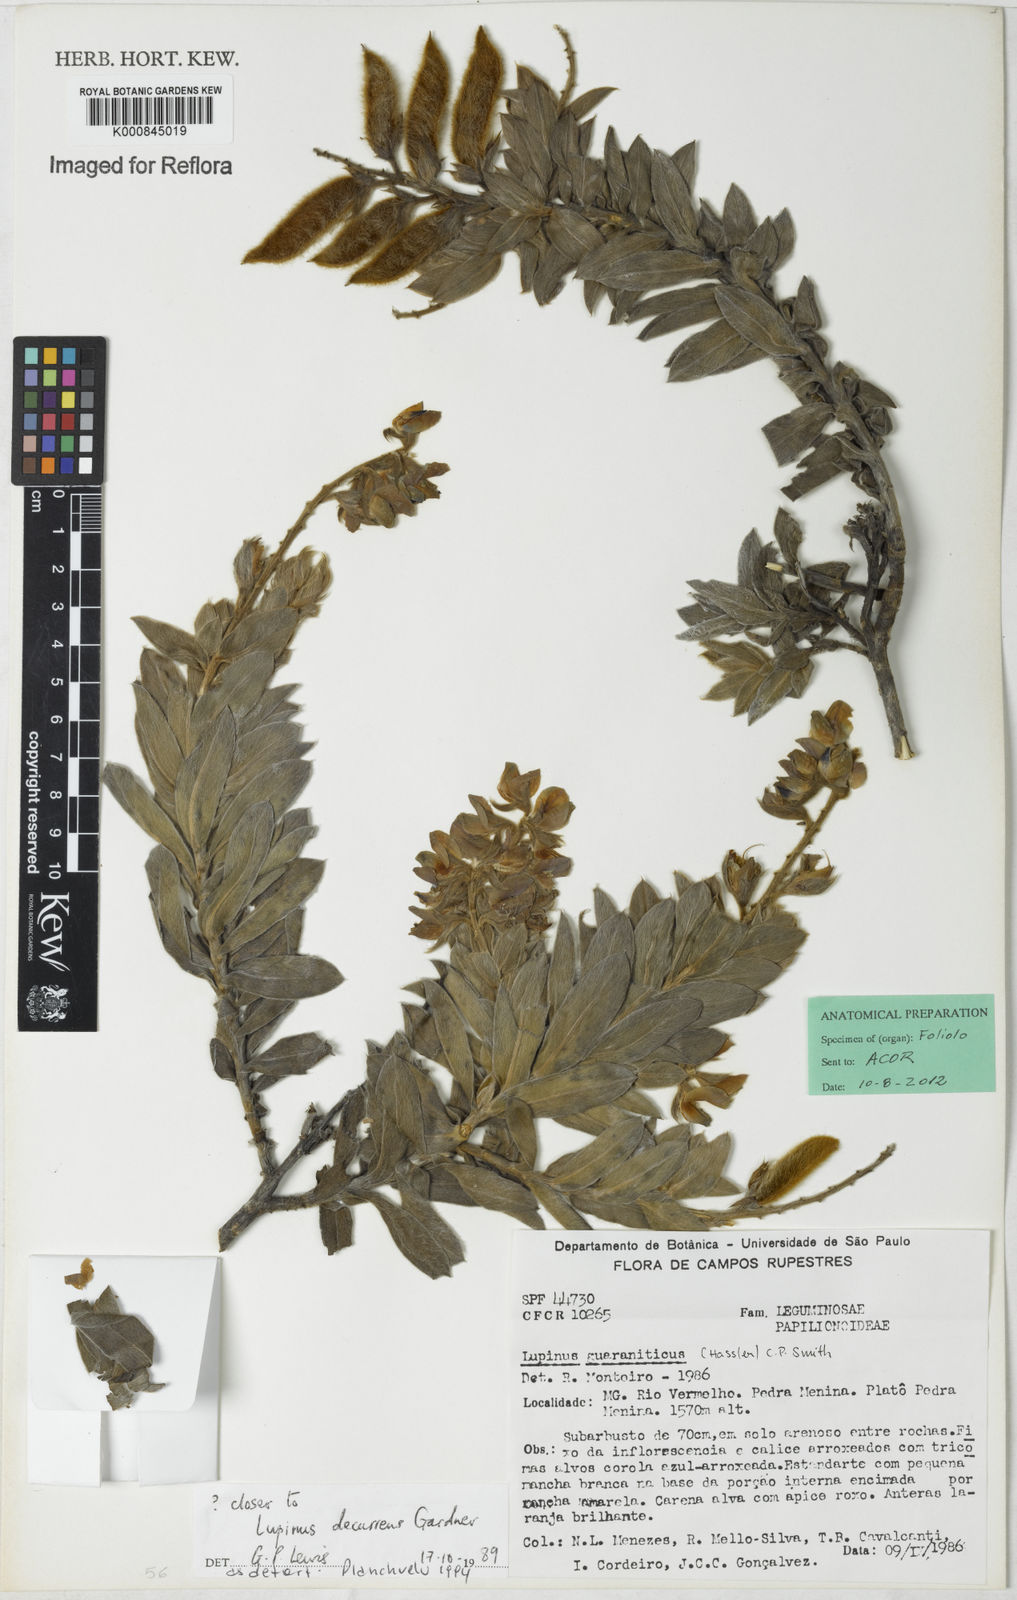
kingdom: Plantae
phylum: Tracheophyta
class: Magnoliopsida
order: Fabales
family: Fabaceae
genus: Lupinus
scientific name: Lupinus decurrens
